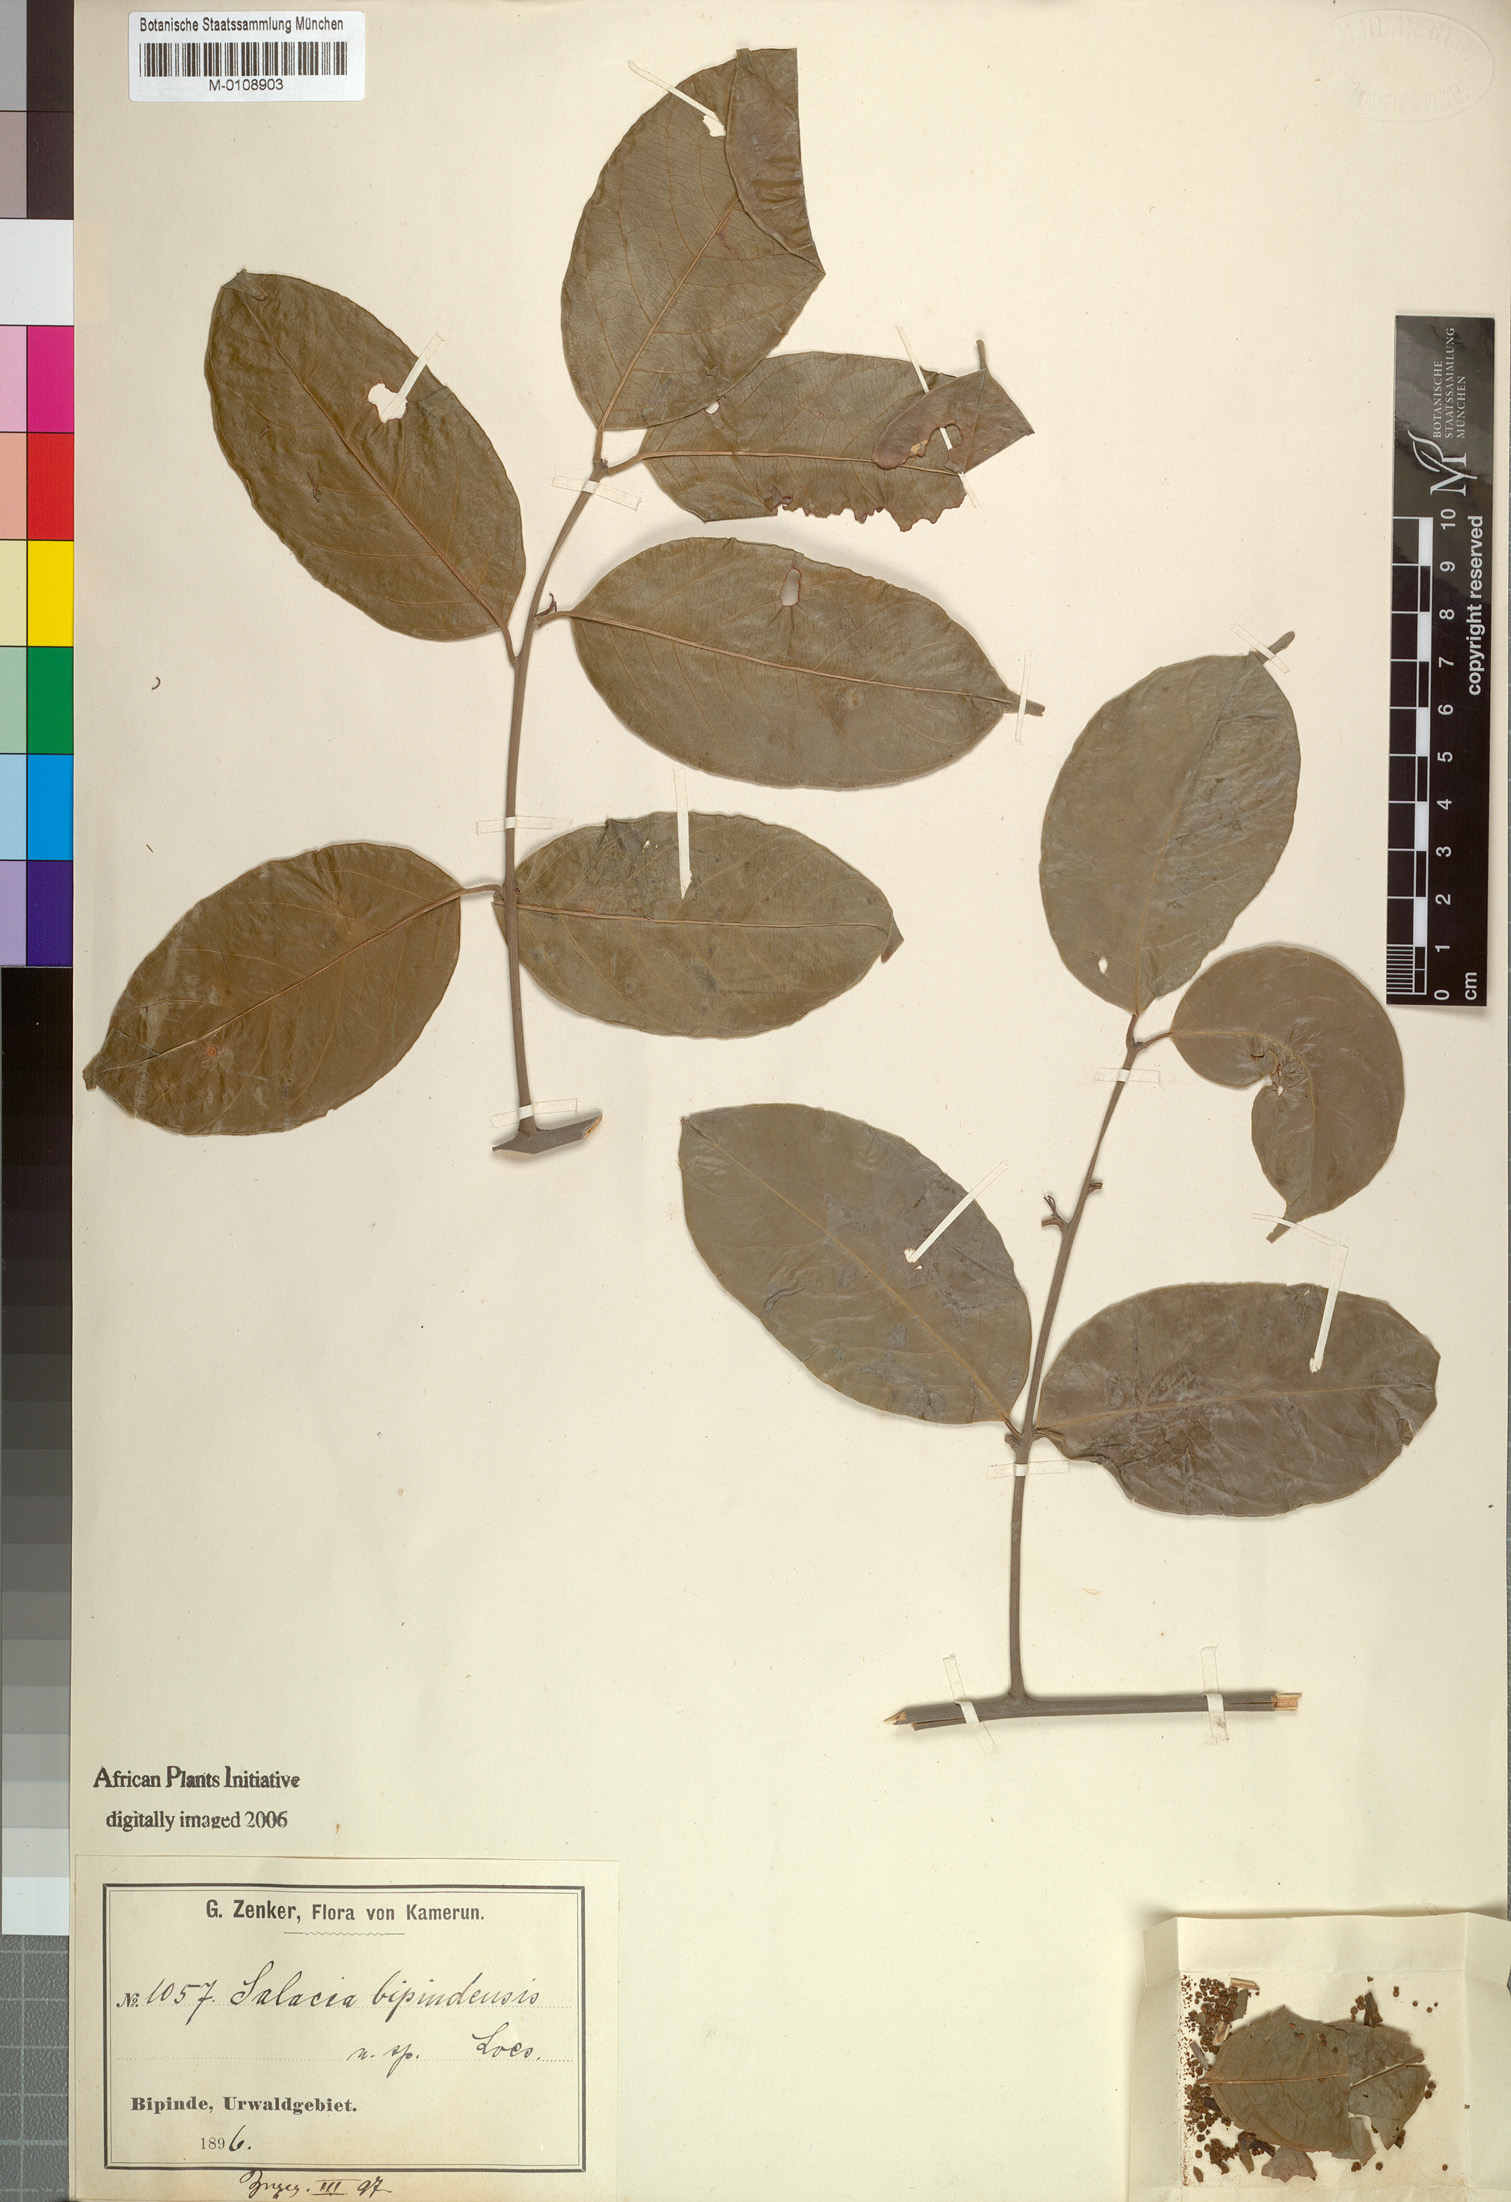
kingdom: Plantae
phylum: Tracheophyta
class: Magnoliopsida
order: Celastrales
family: Celastraceae
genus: Salacia
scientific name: Salacia nitida
